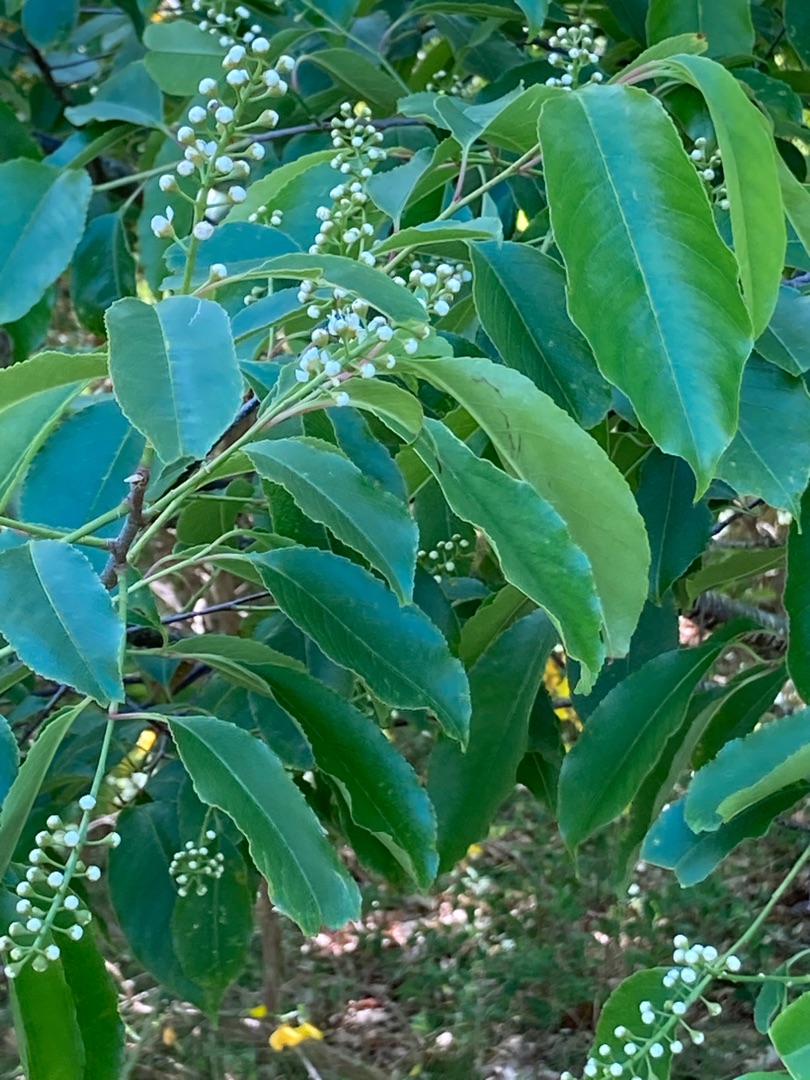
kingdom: Plantae
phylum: Tracheophyta
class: Magnoliopsida
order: Rosales
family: Rosaceae
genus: Prunus
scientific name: Prunus serotina
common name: Glansbladet hæg
